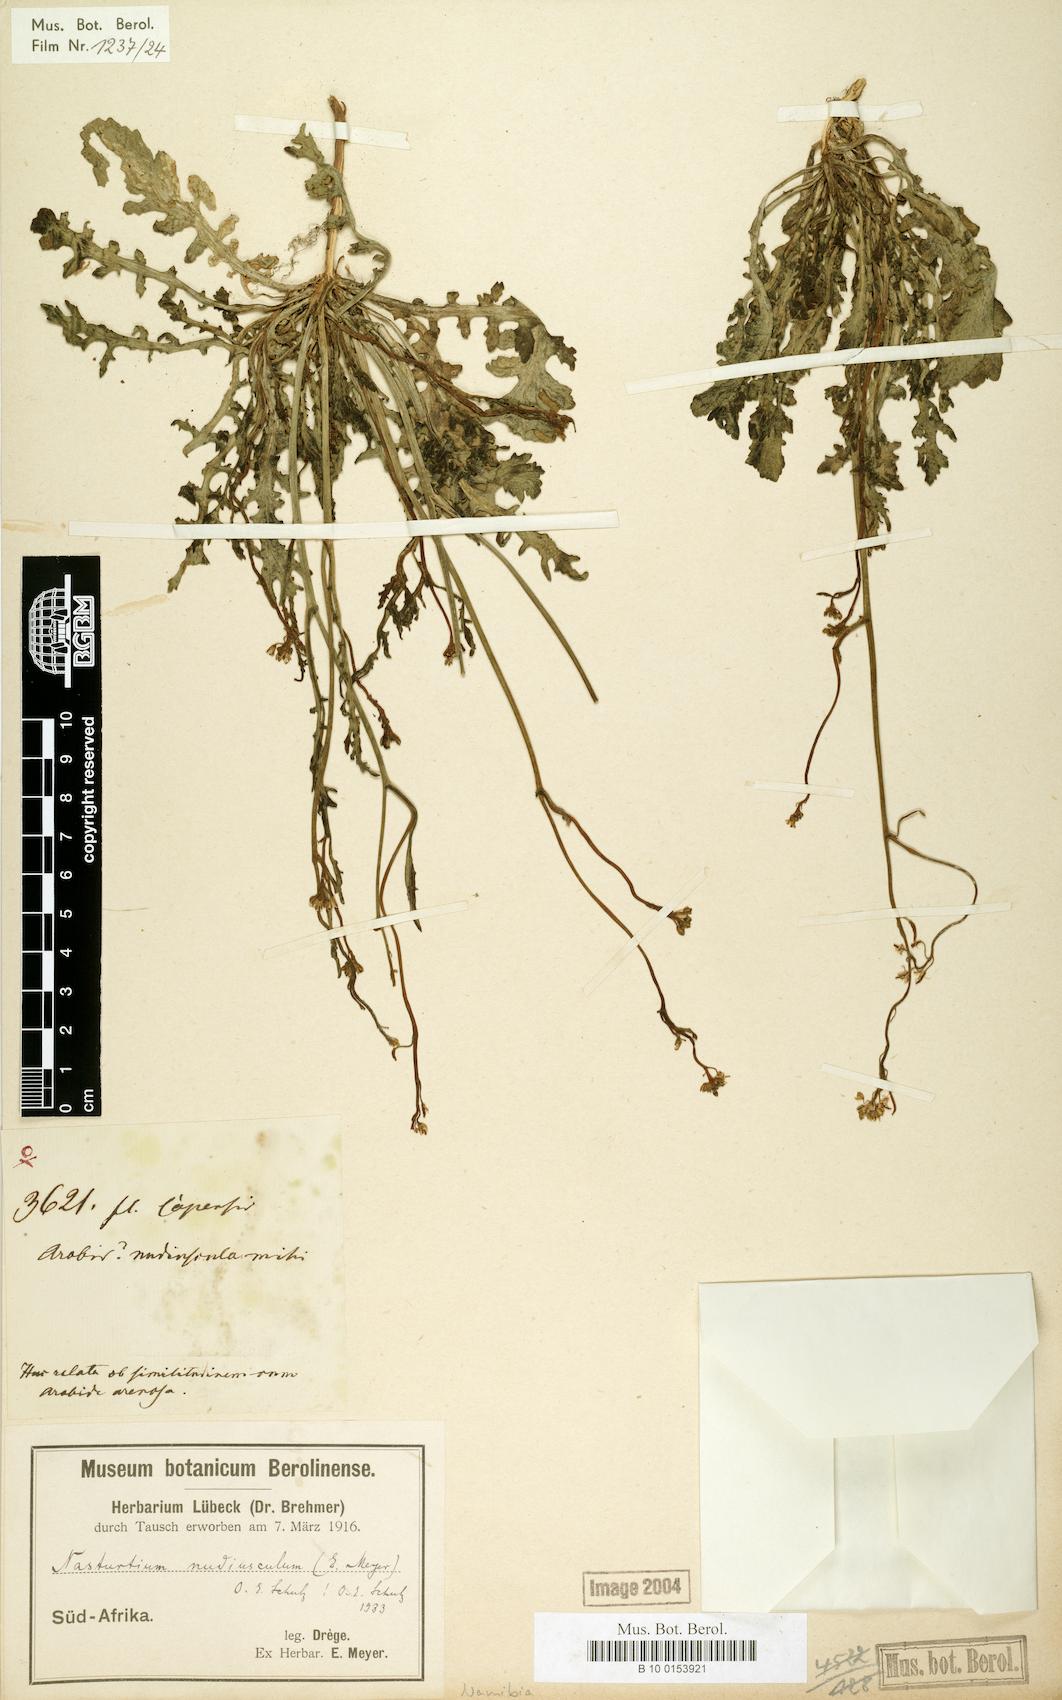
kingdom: Plantae
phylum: Tracheophyta
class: Magnoliopsida
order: Brassicales
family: Brassicaceae
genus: Rorippa
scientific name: Rorippa nudiuscula
